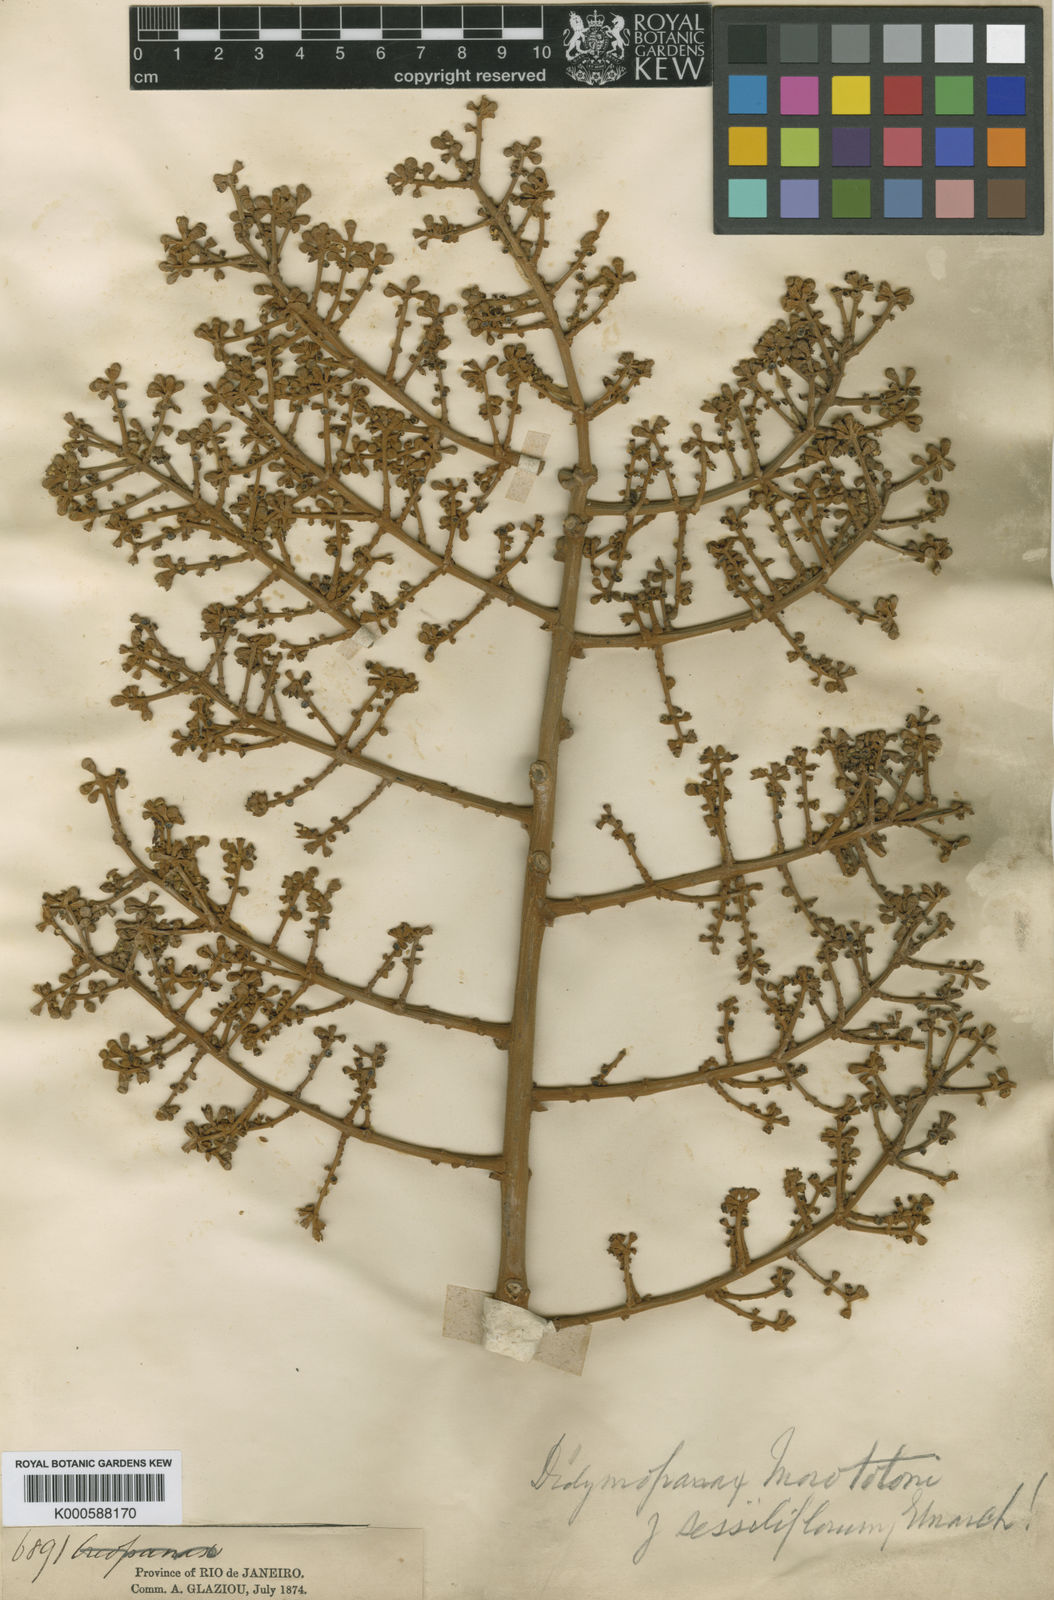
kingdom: Plantae
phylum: Tracheophyta
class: Magnoliopsida
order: Apiales
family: Araliaceae
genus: Didymopanax
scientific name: Didymopanax morototoni
